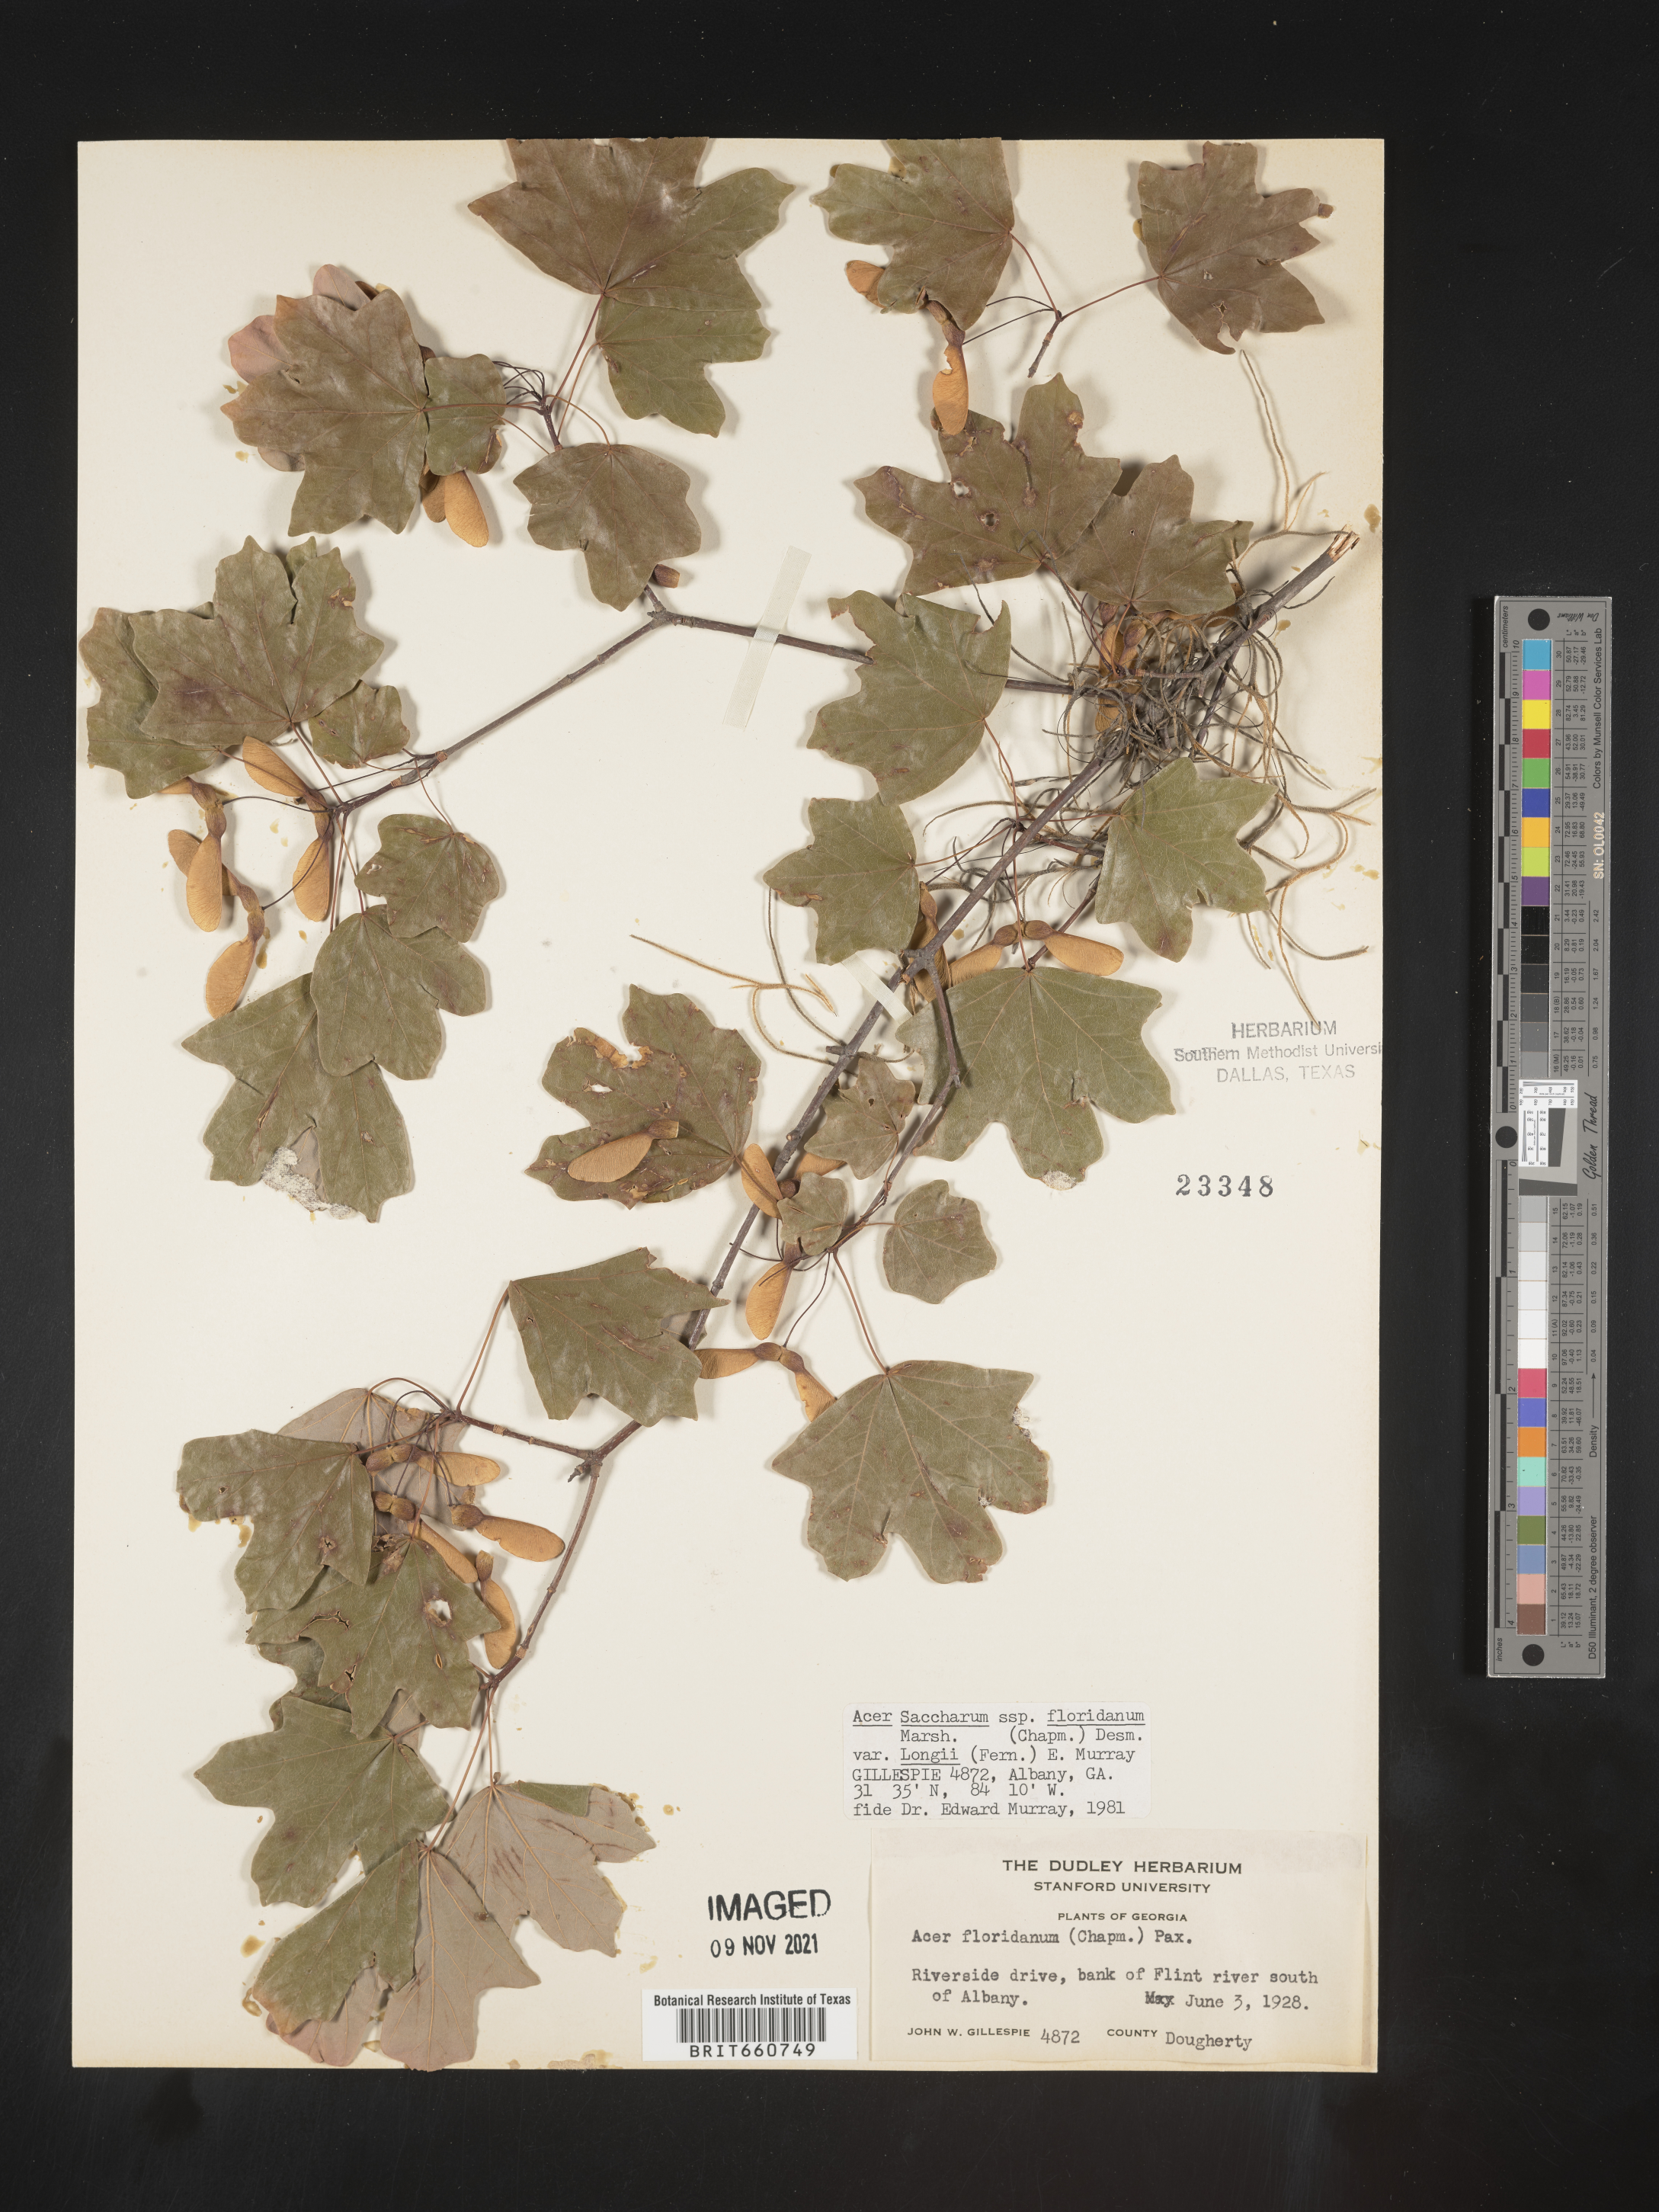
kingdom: Plantae
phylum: Tracheophyta
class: Magnoliopsida
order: Sapindales
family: Sapindaceae
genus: Acer
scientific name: Acer barbatum
